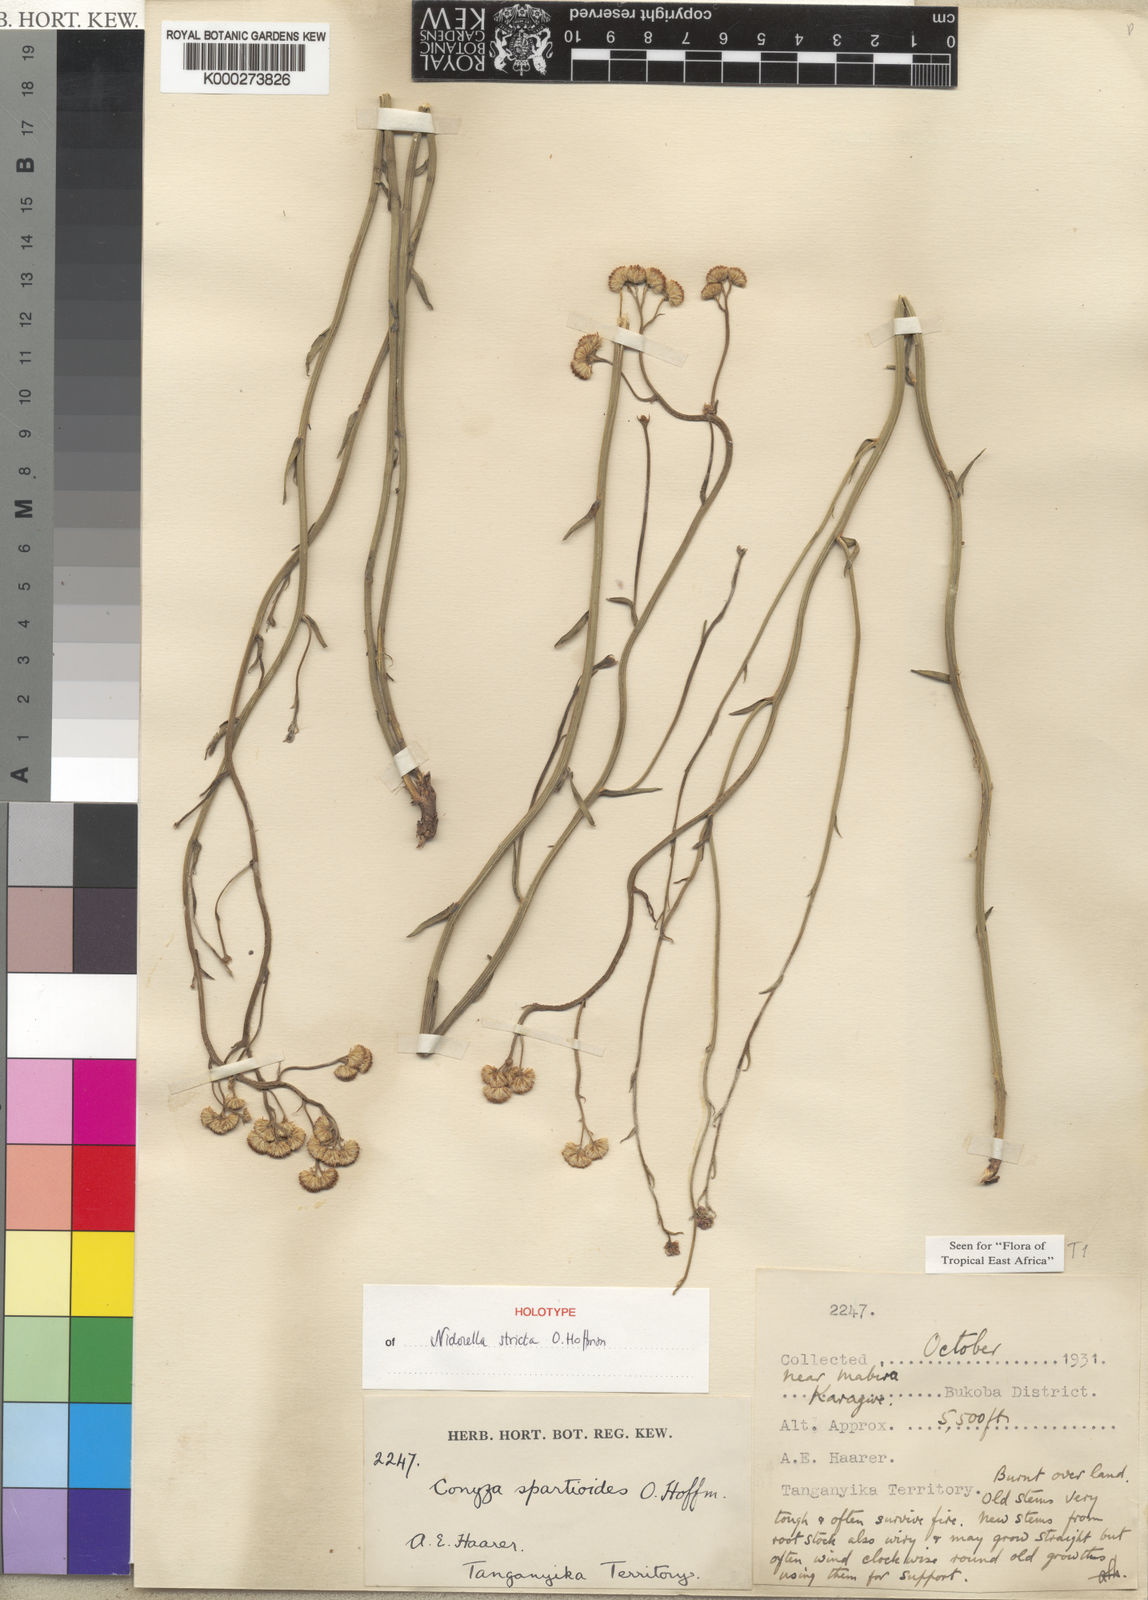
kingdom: Plantae
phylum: Tracheophyta
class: Magnoliopsida
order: Asterales
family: Asteraceae
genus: Nidorella
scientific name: Nidorella spartioides
